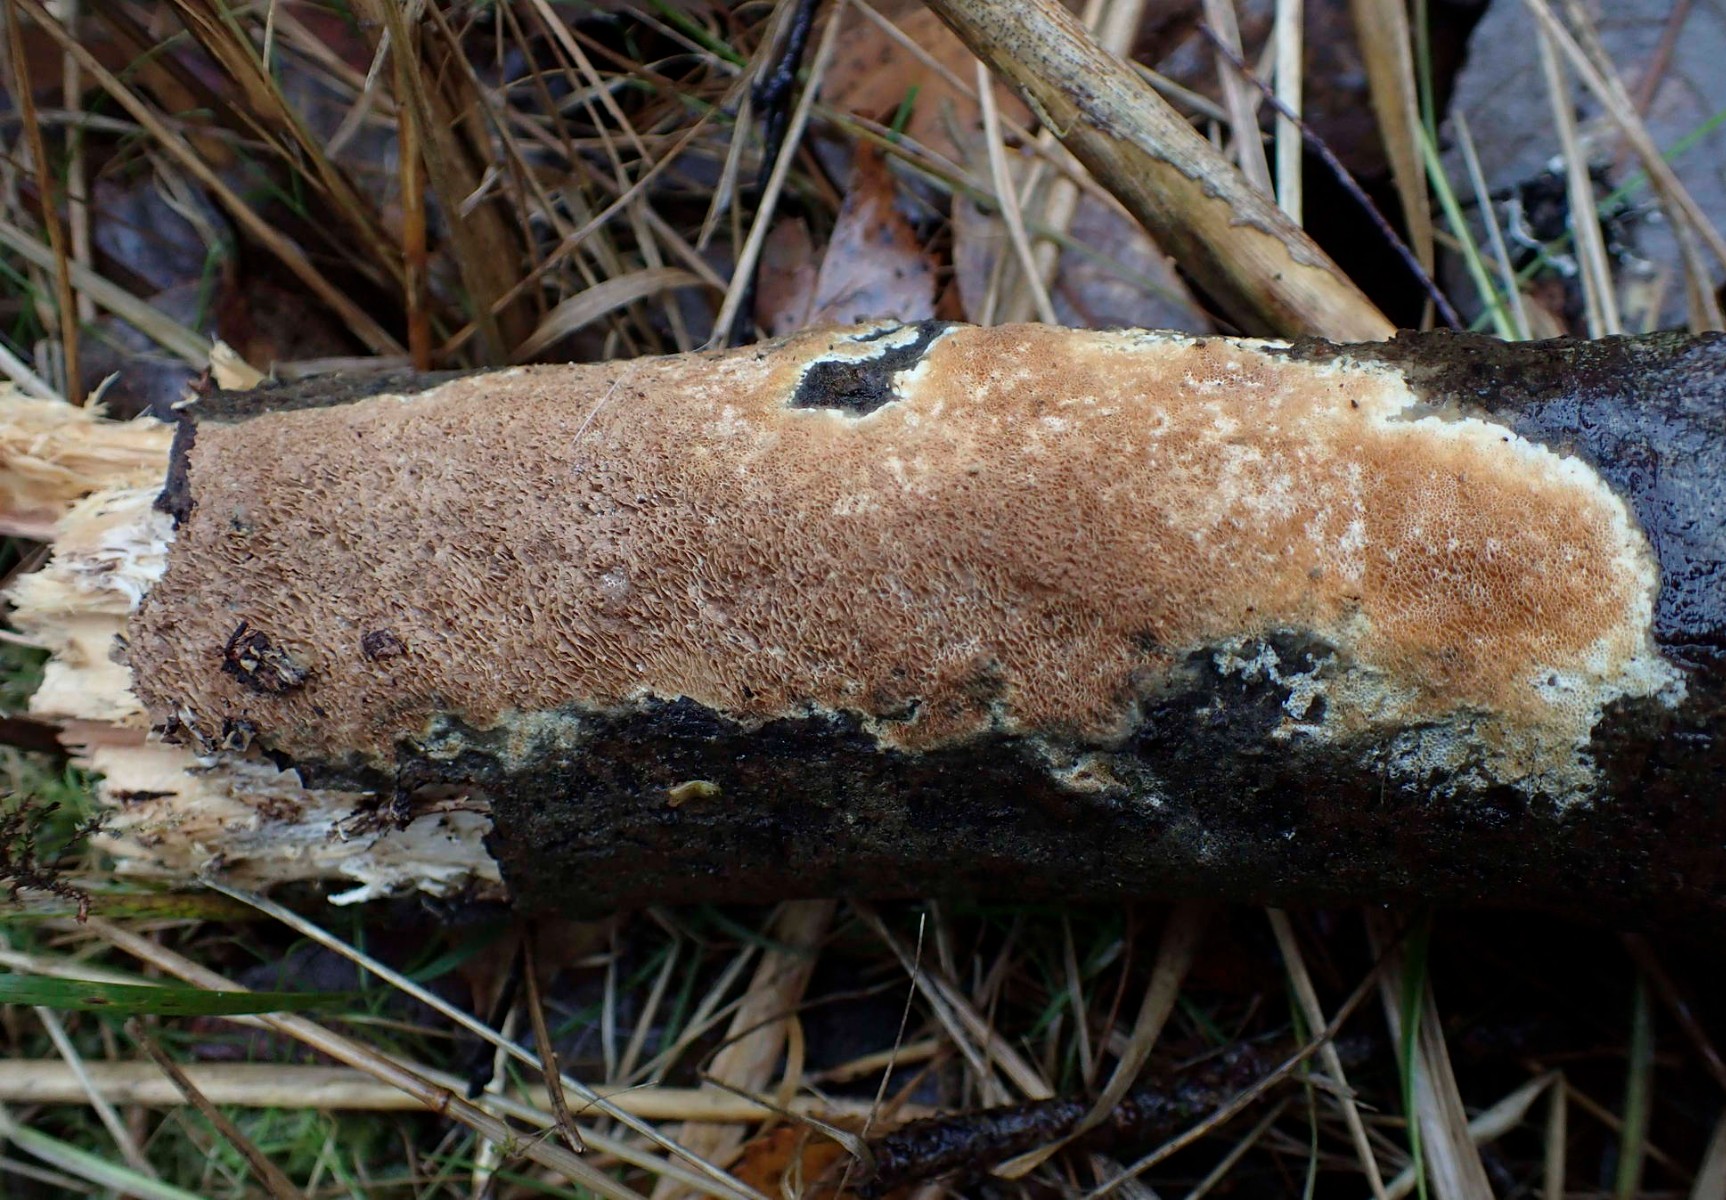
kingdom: Fungi
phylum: Basidiomycota
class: Agaricomycetes
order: Polyporales
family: Irpicaceae
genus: Resiniporus
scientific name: Resiniporus resinascens
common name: trist pastelporesvamp
